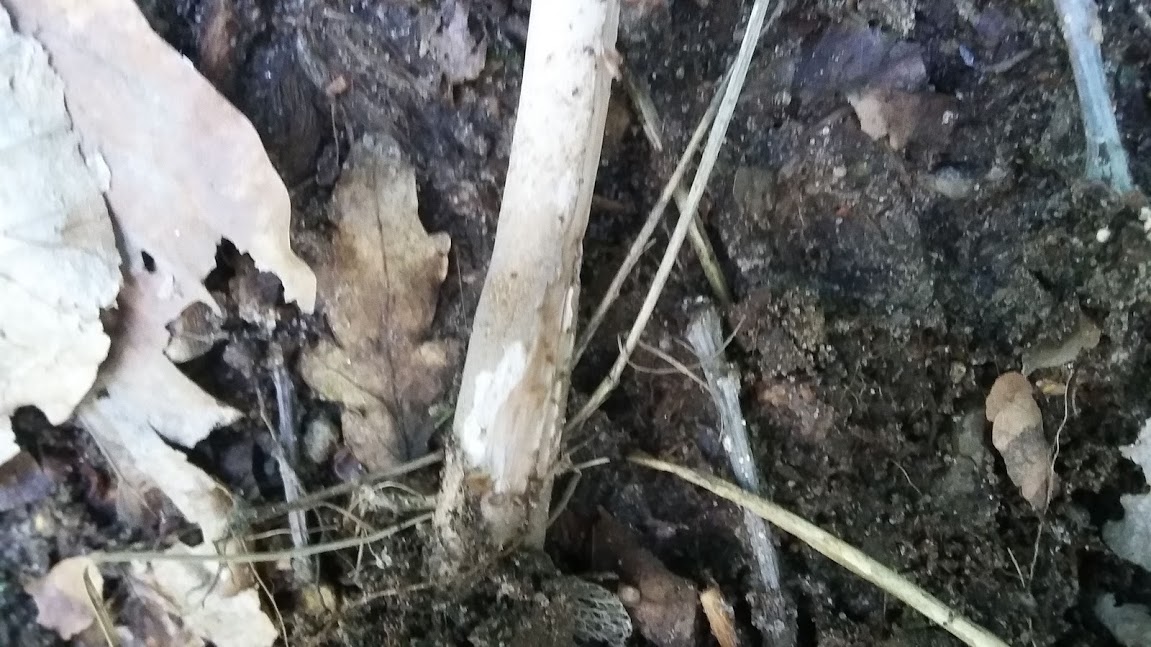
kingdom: Fungi
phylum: Basidiomycota
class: Agaricomycetes
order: Agaricales
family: Agaricaceae
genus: Macrolepiota
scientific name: Macrolepiota
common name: kæmpeparasolhat
